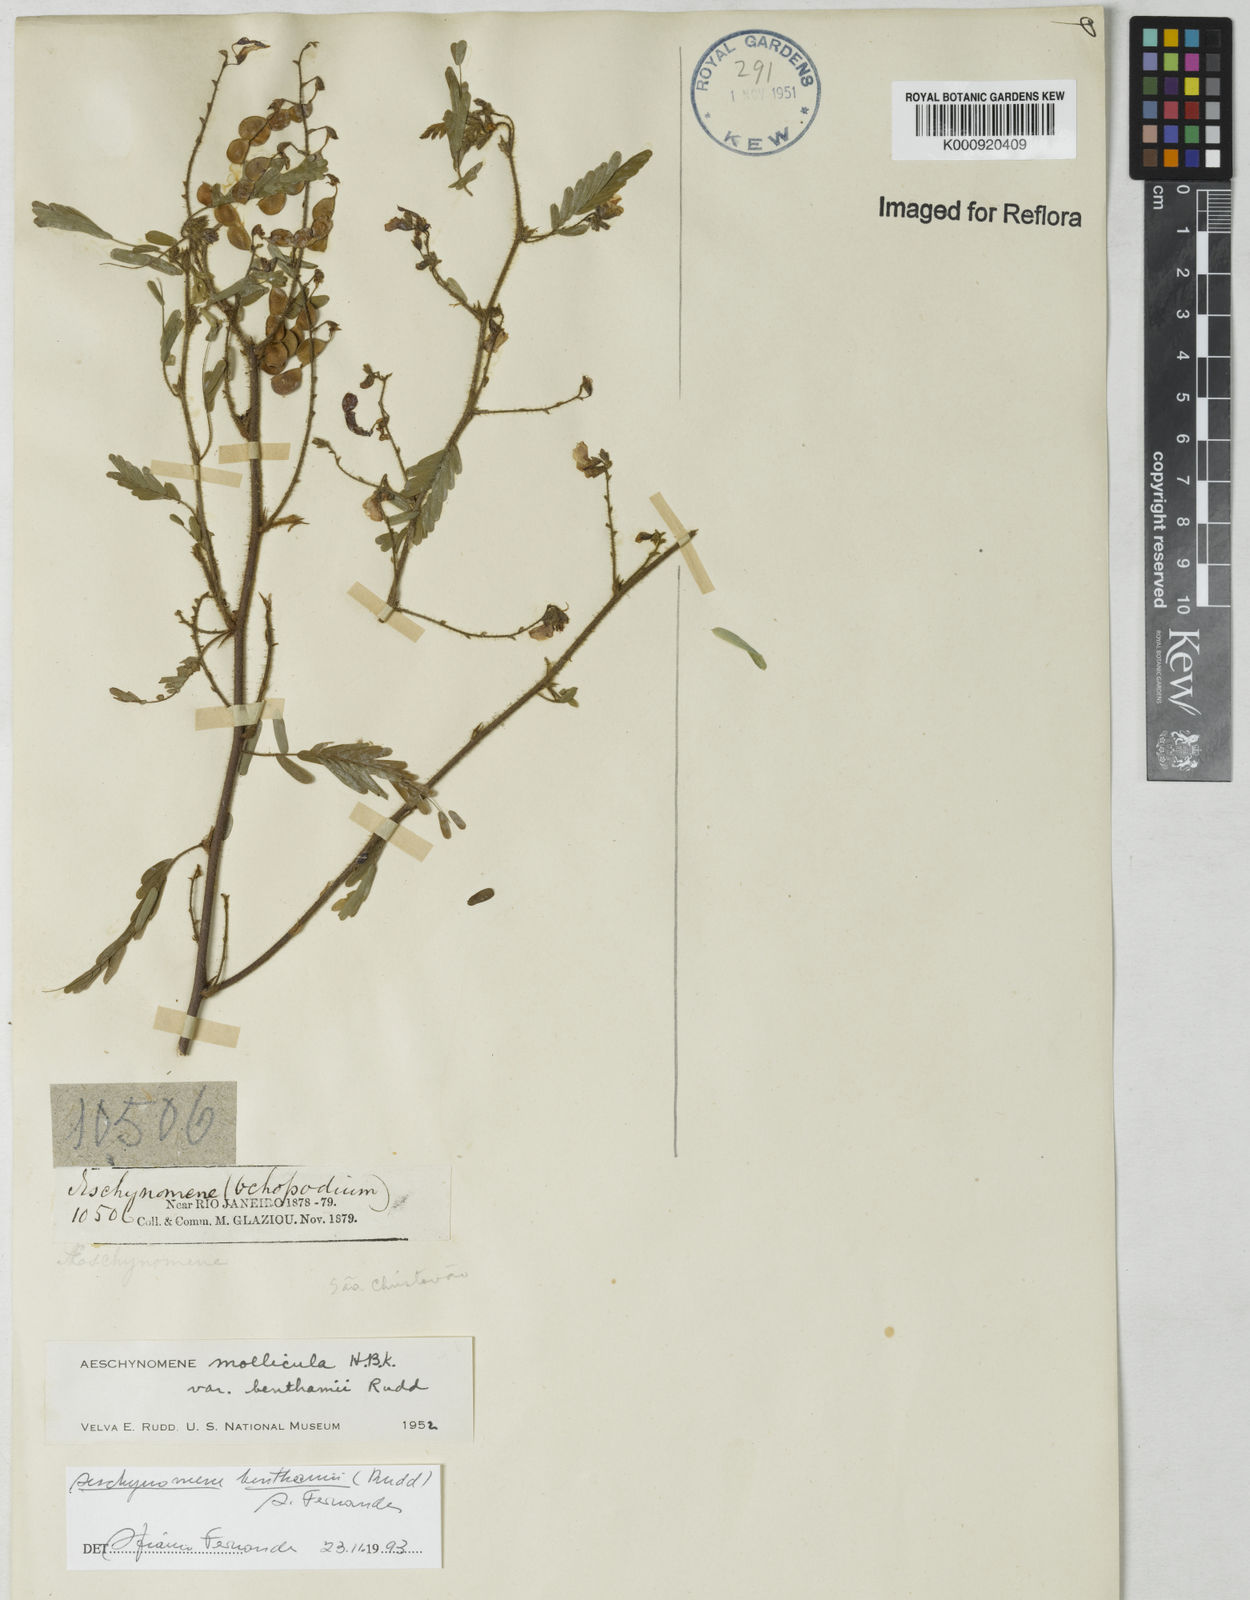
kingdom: Plantae
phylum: Tracheophyta
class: Magnoliopsida
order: Fabales
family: Fabaceae
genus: Ctenodon
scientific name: Ctenodon benthamii
